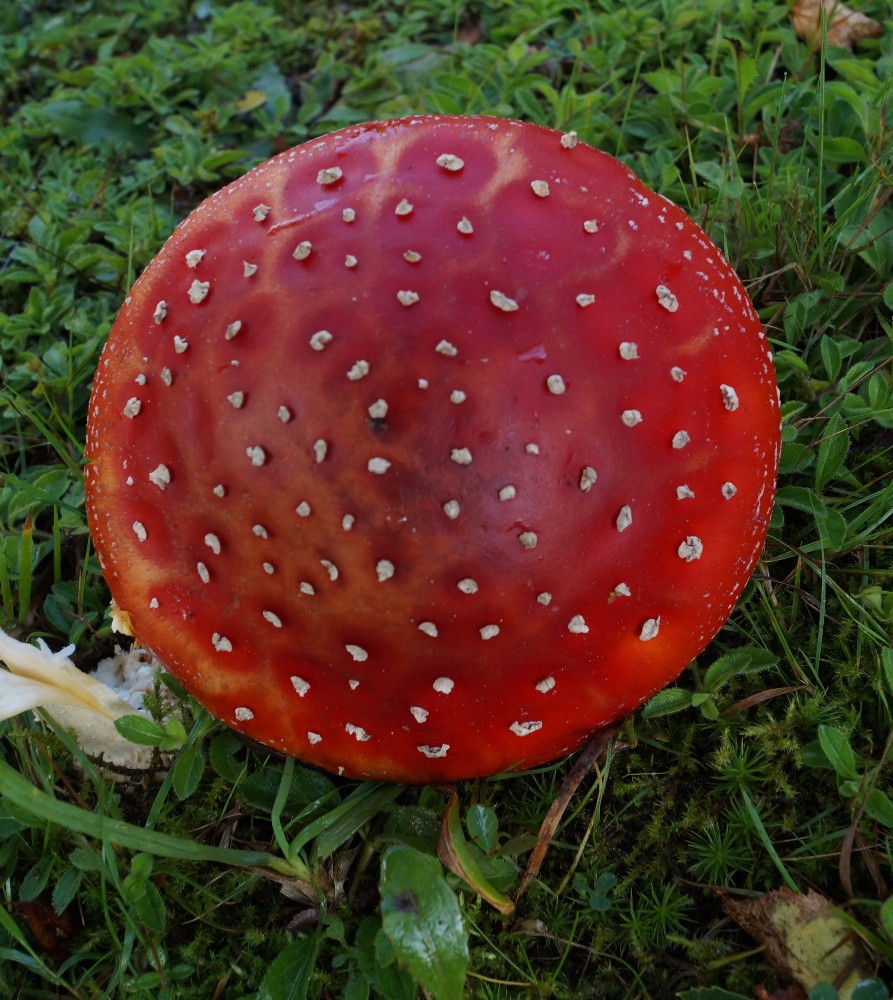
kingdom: Fungi
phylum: Basidiomycota
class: Agaricomycetes
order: Agaricales
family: Amanitaceae
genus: Amanita
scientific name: Amanita muscaria
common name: rød fluesvamp
